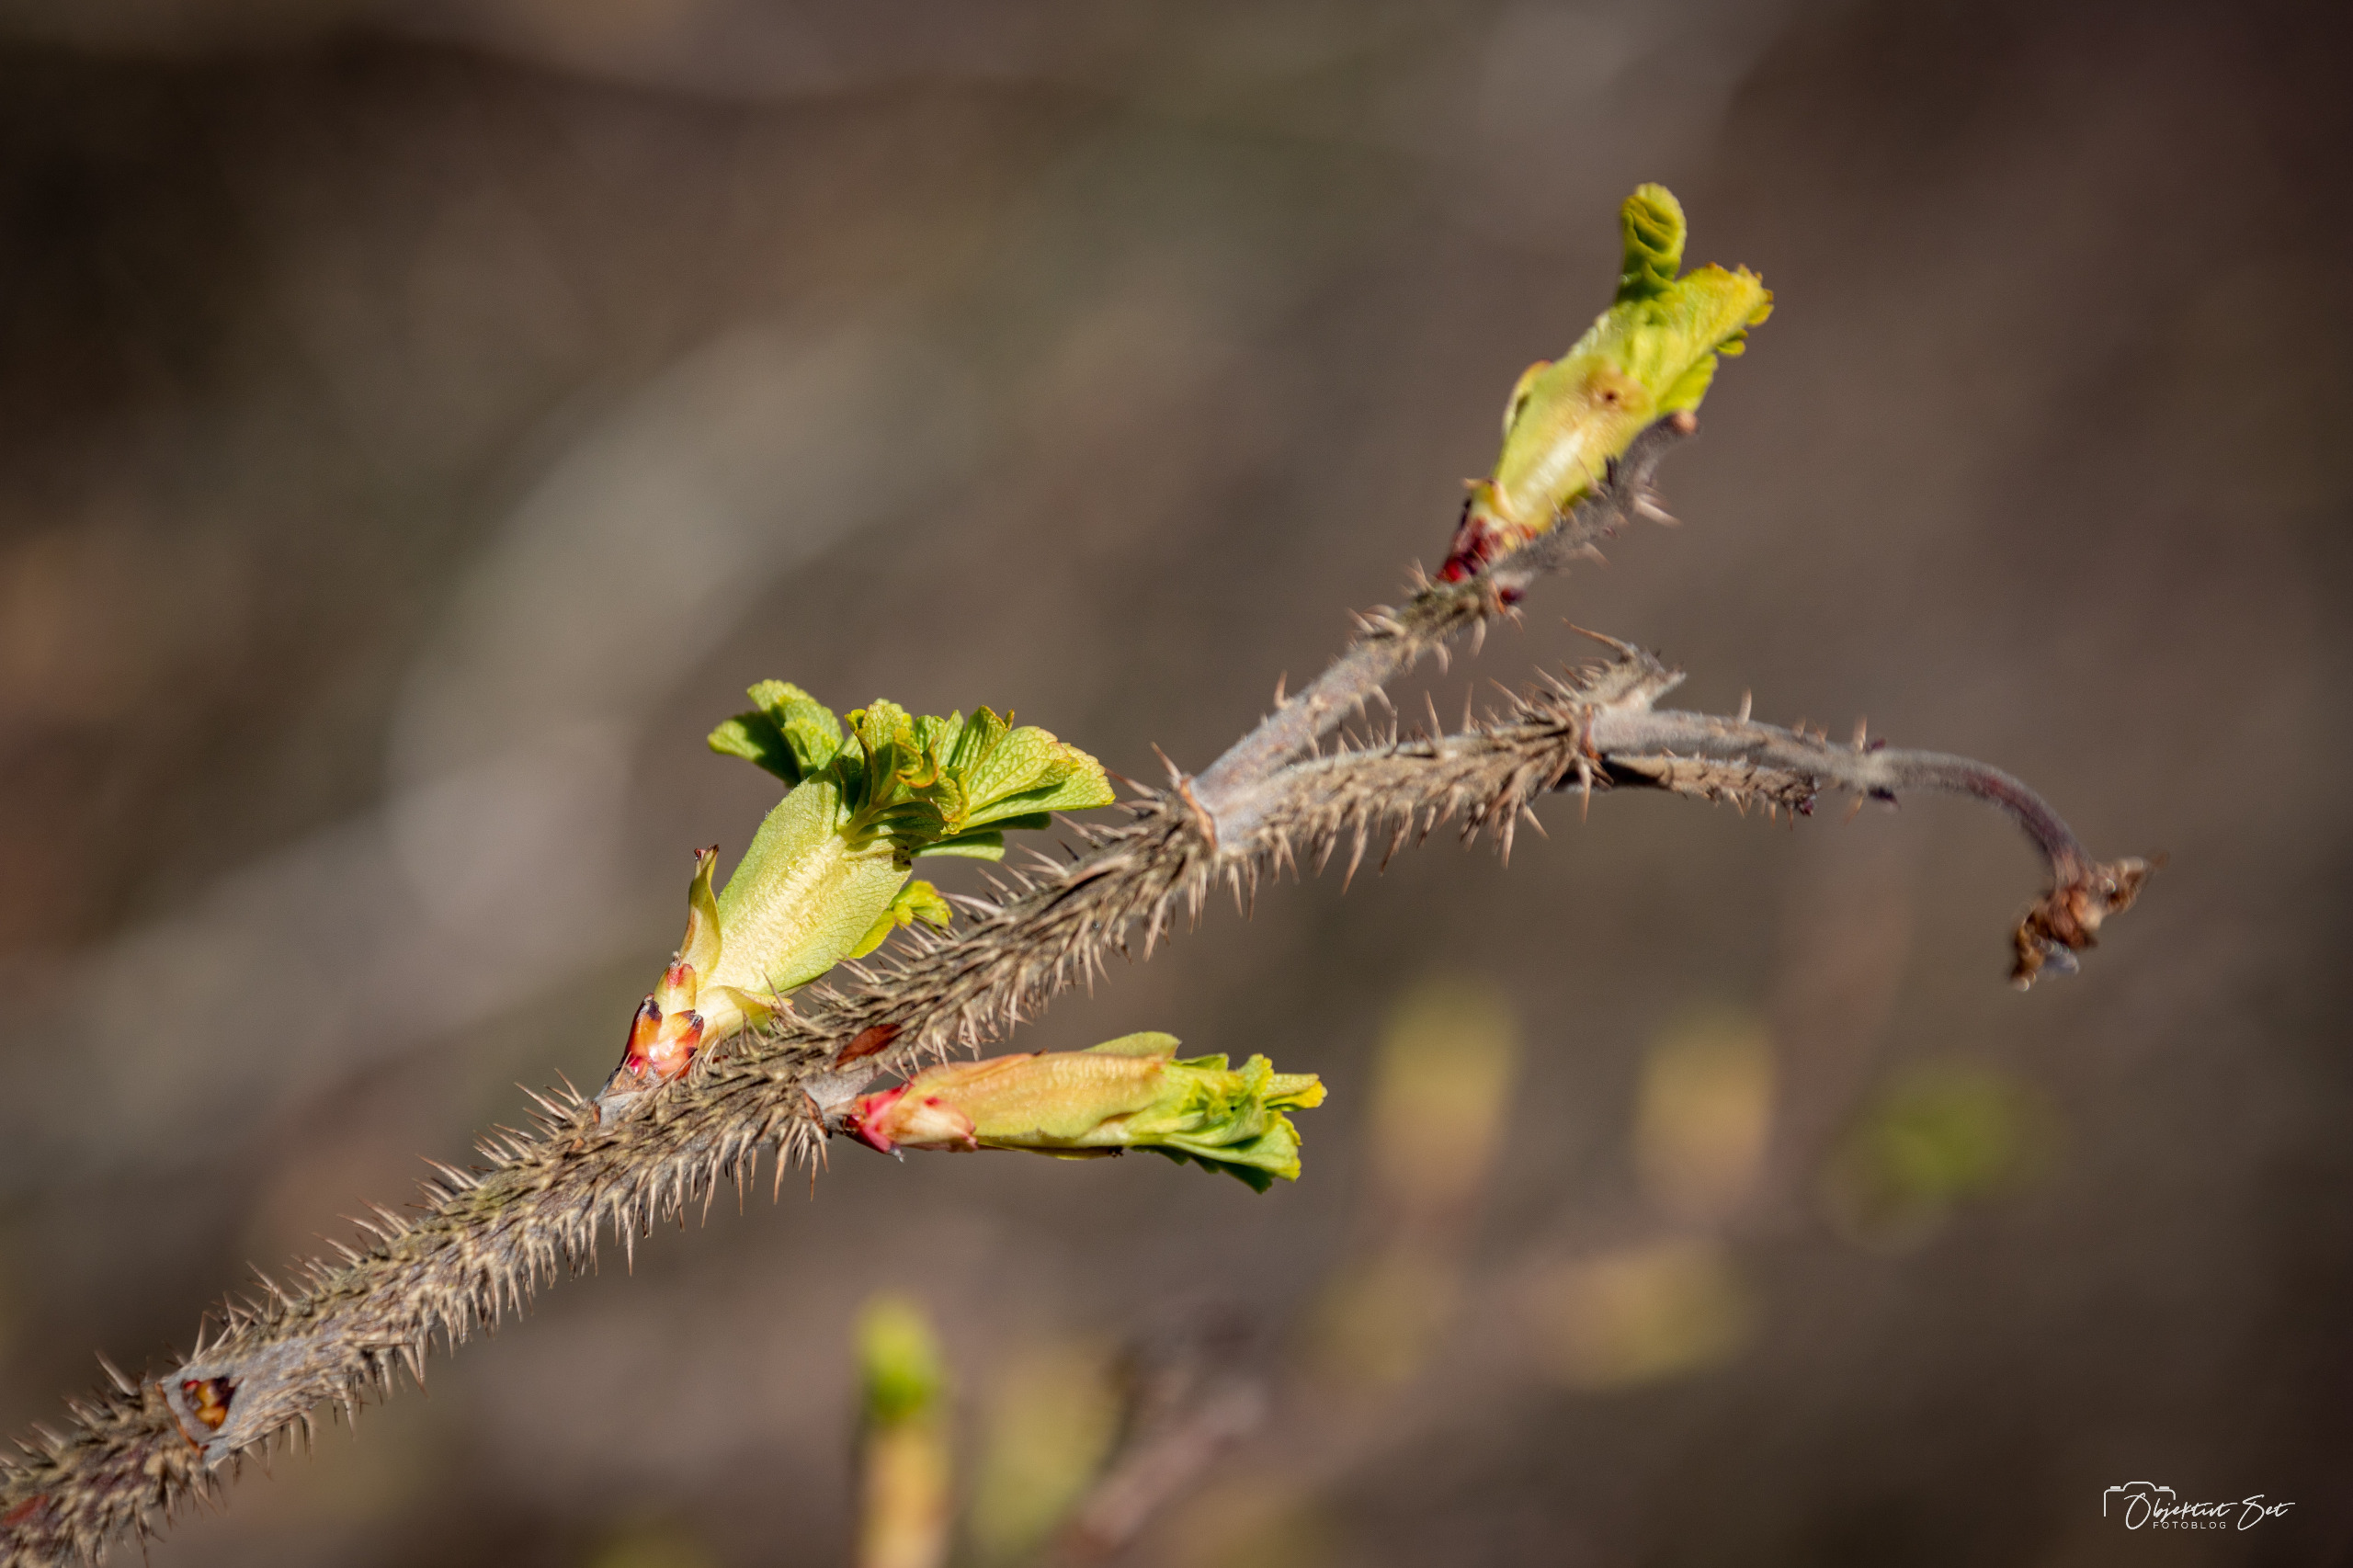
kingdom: Plantae
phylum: Tracheophyta
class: Magnoliopsida
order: Rosales
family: Rosaceae
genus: Rosa
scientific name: Rosa rugosa
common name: Rynket rose
